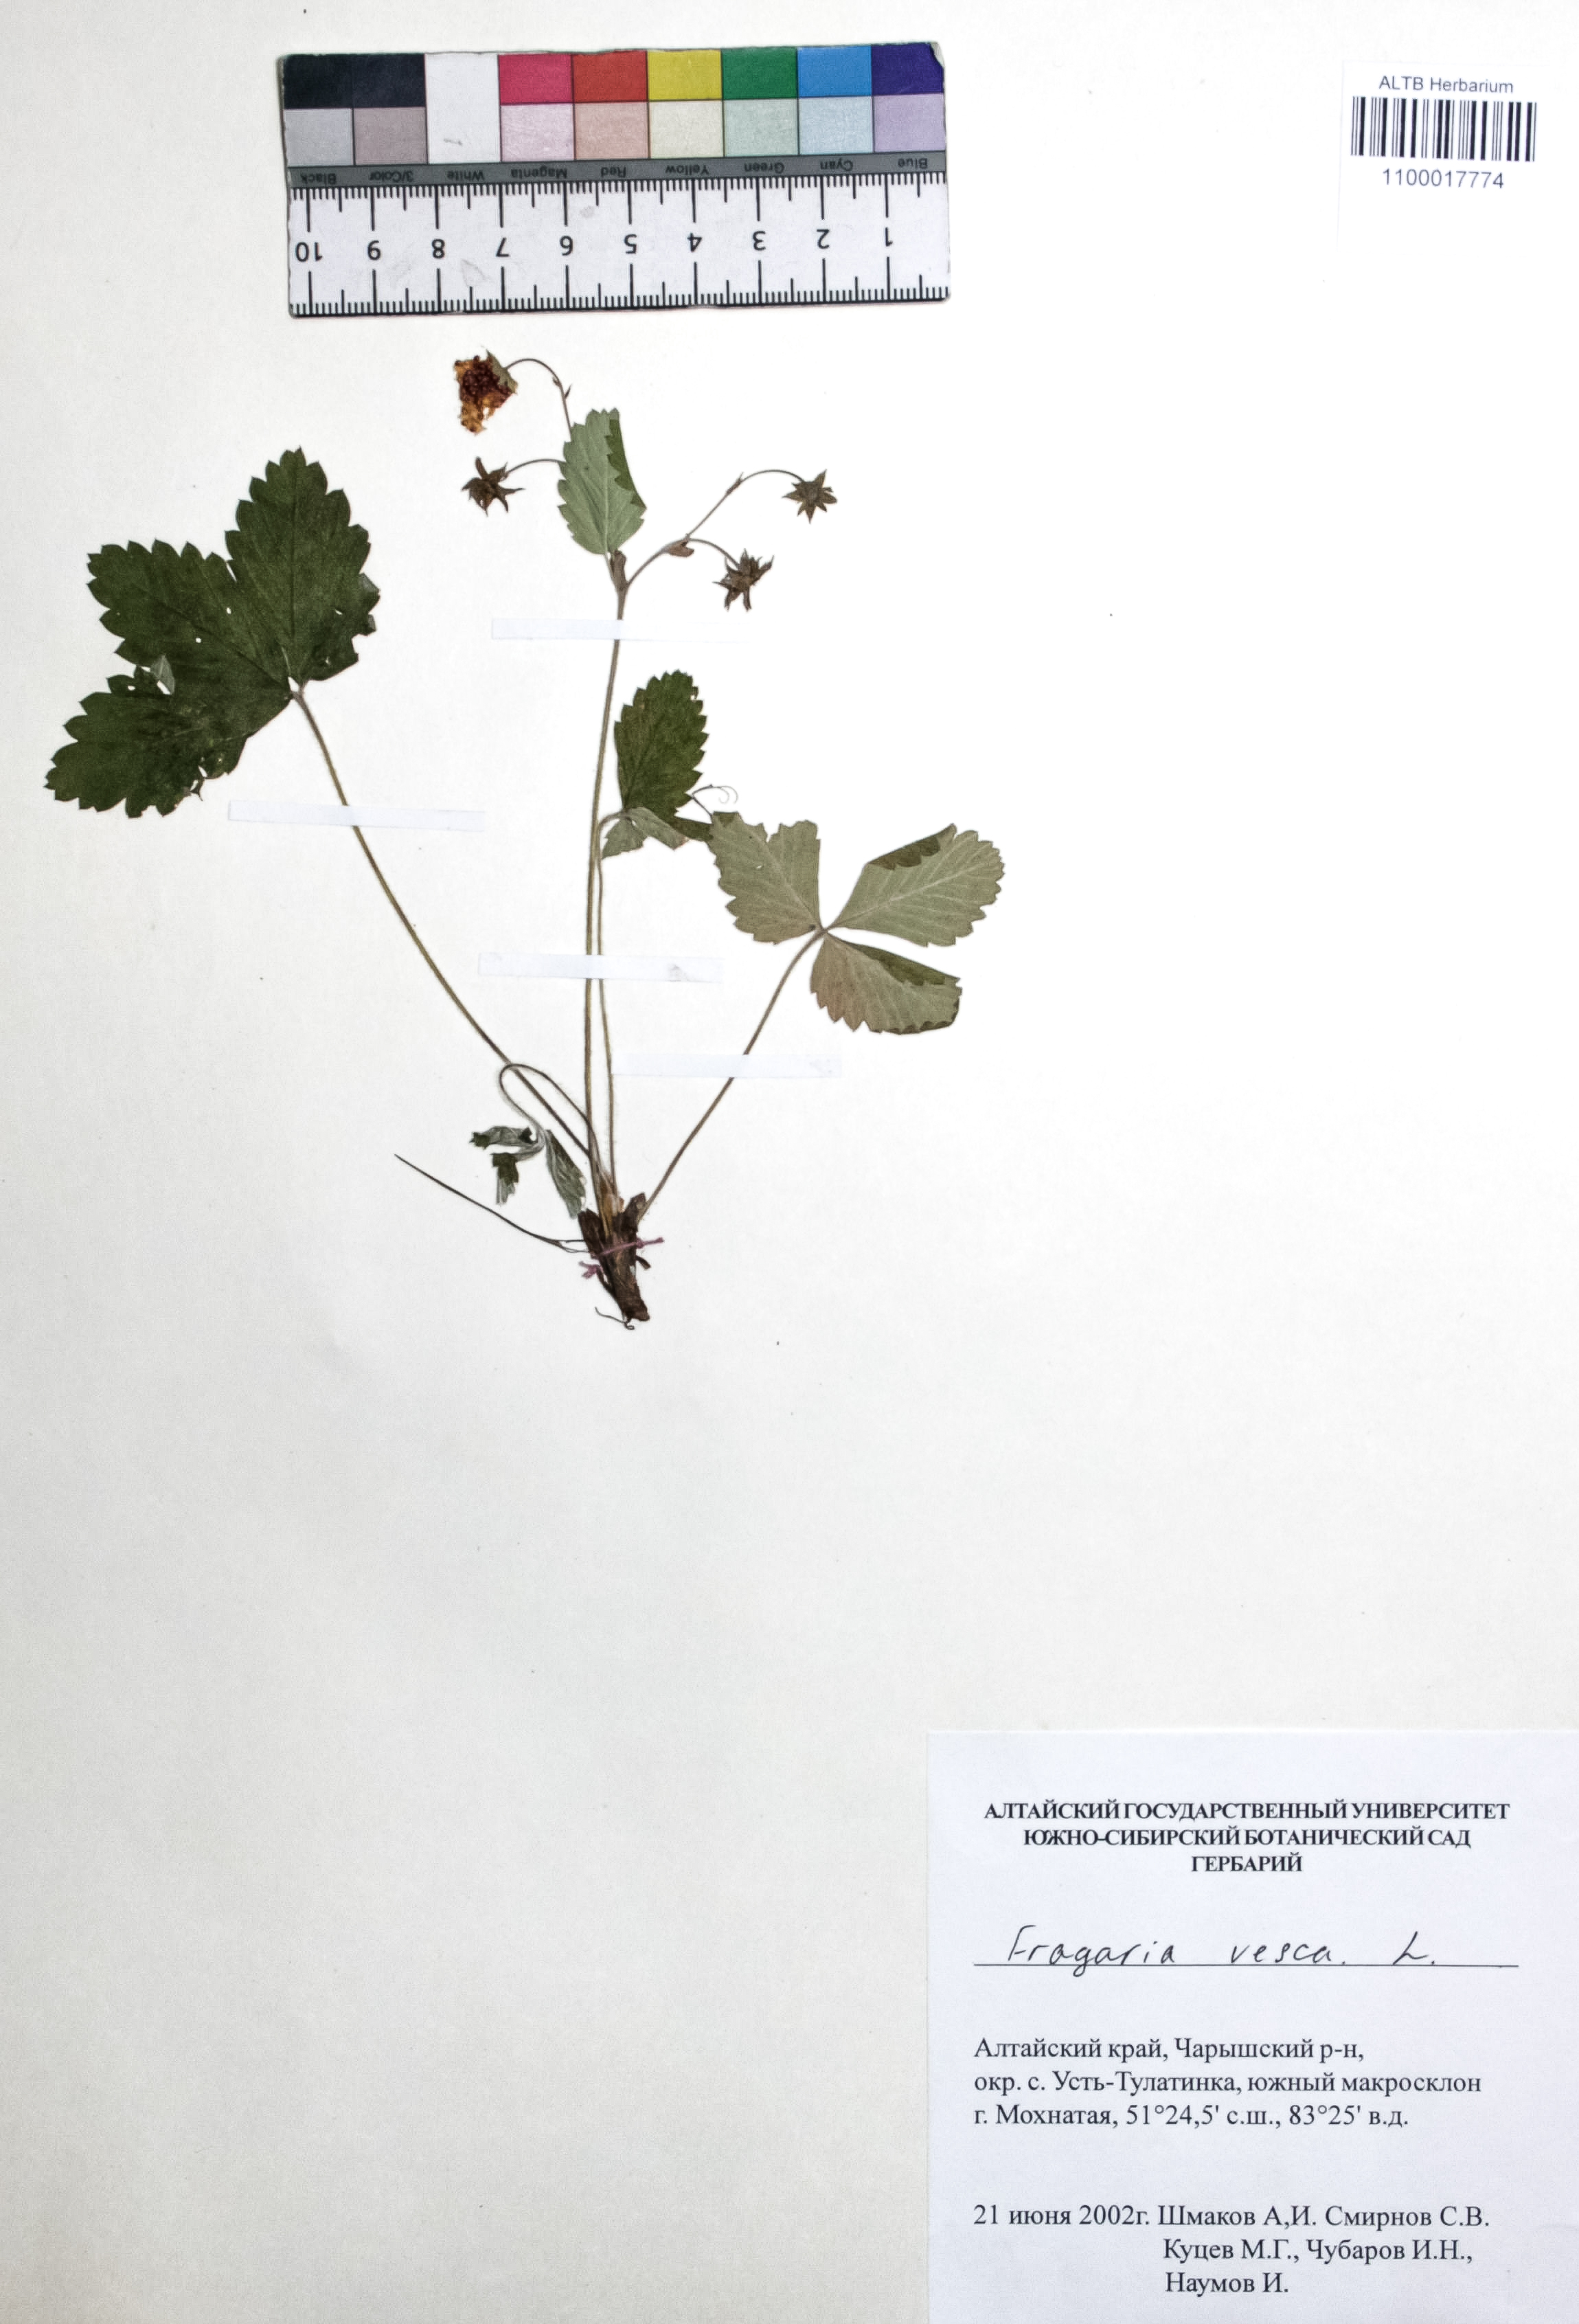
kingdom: Plantae
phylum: Tracheophyta
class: Magnoliopsida
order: Rosales
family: Rosaceae
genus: Fragaria
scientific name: Fragaria vesca
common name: Wild strawberry
